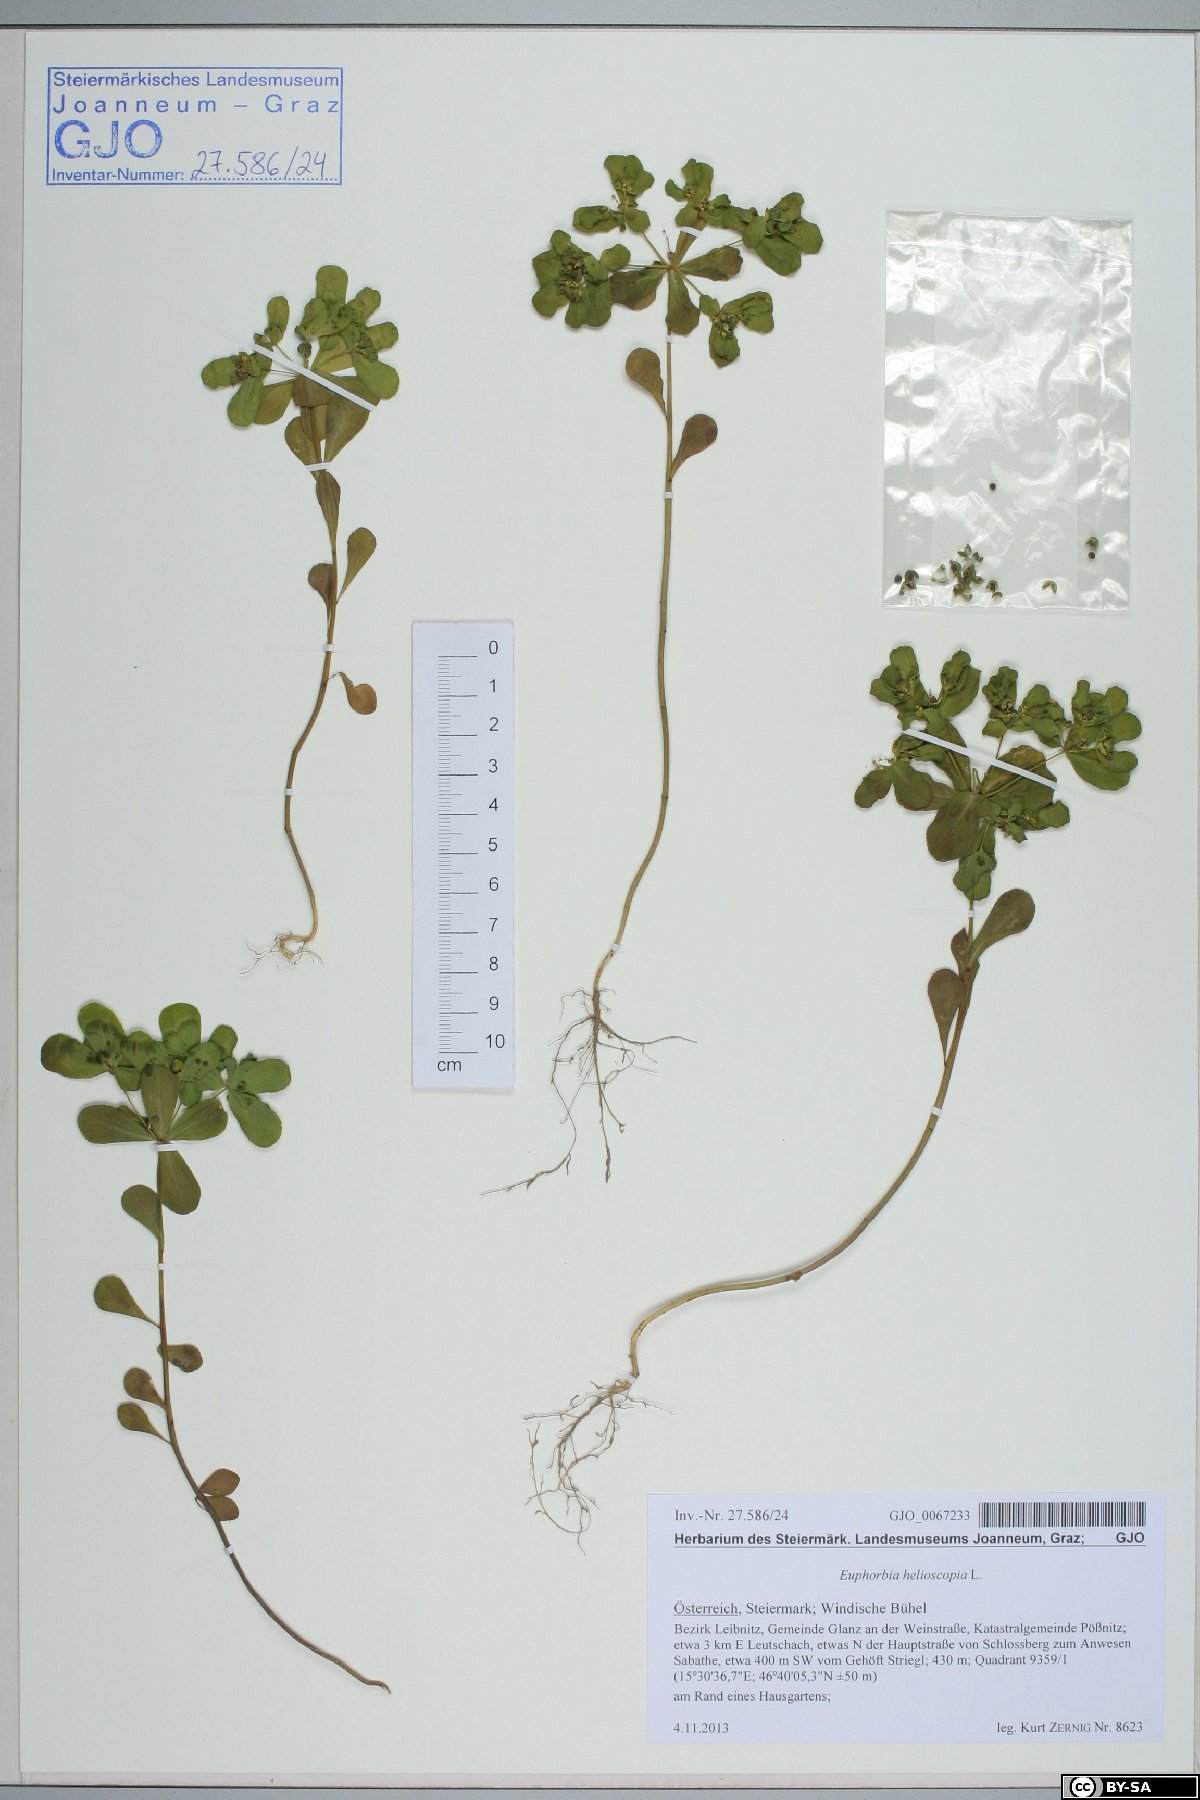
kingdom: Plantae
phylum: Tracheophyta
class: Magnoliopsida
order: Malpighiales
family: Euphorbiaceae
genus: Euphorbia
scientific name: Euphorbia helioscopia
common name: Sun spurge
